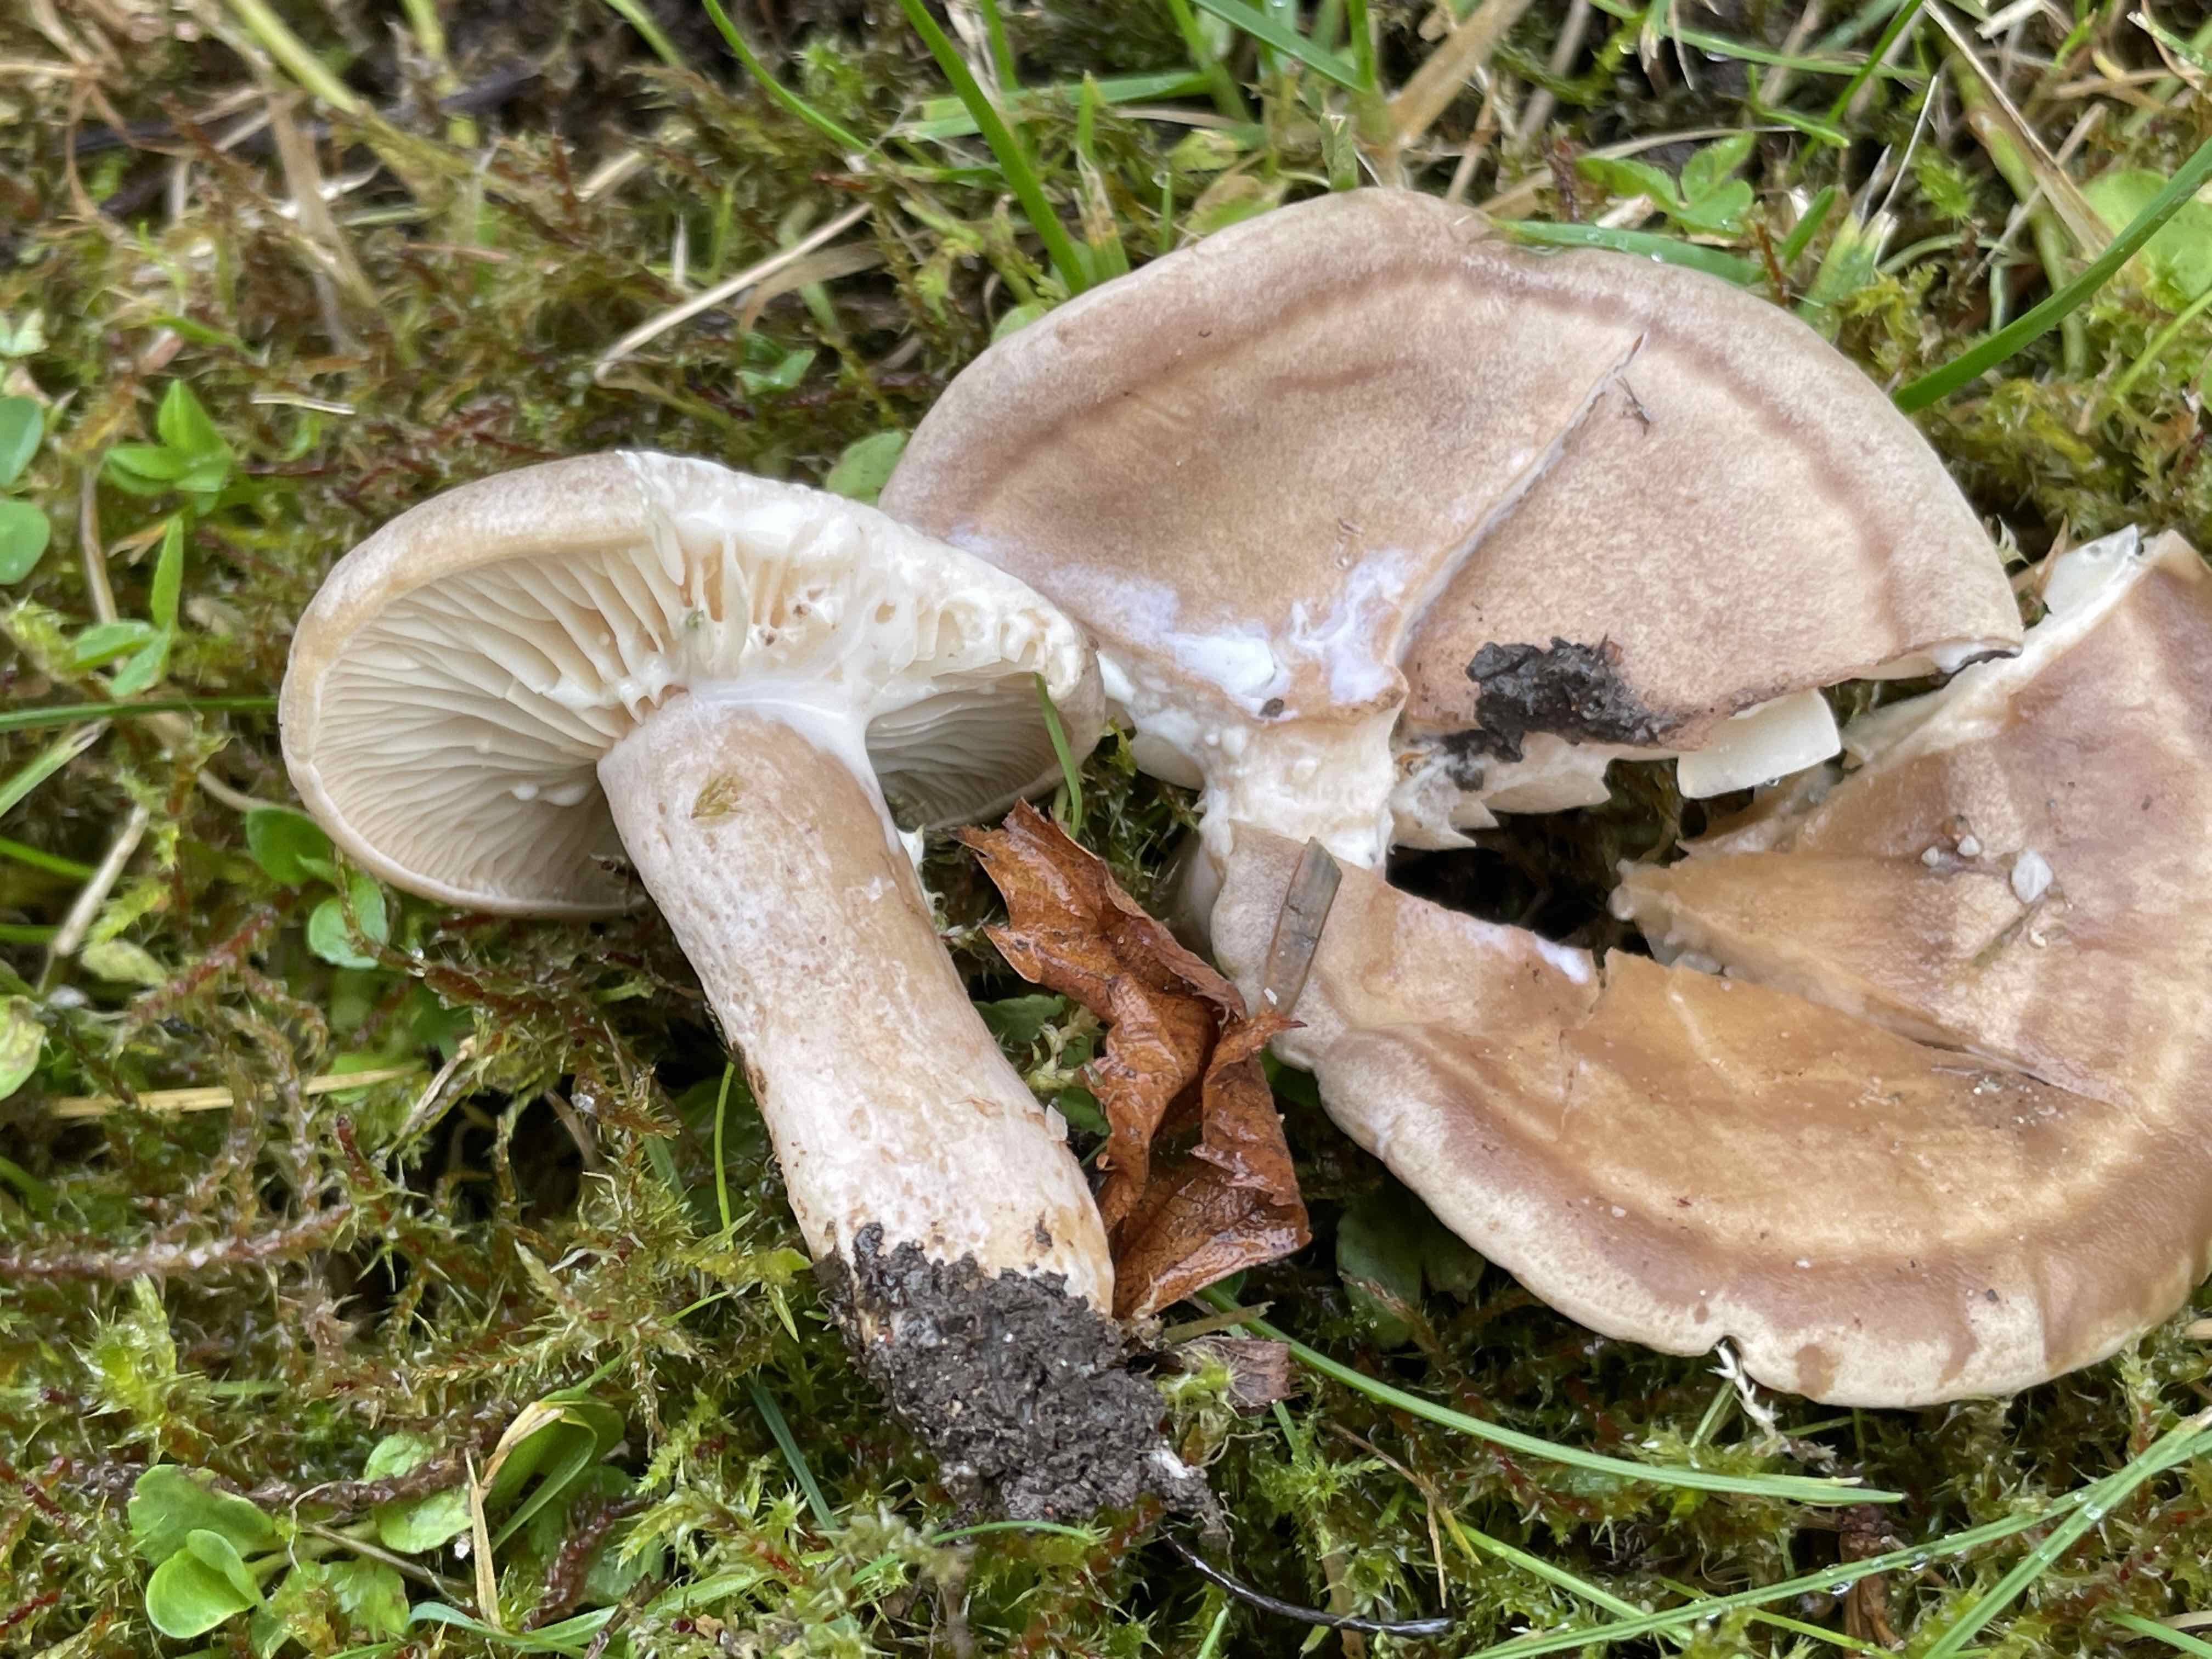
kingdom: Fungi
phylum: Basidiomycota
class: Agaricomycetes
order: Russulales
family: Russulaceae
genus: Lactarius
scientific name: Lactarius pyrogalus
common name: hassel-mælkehat
